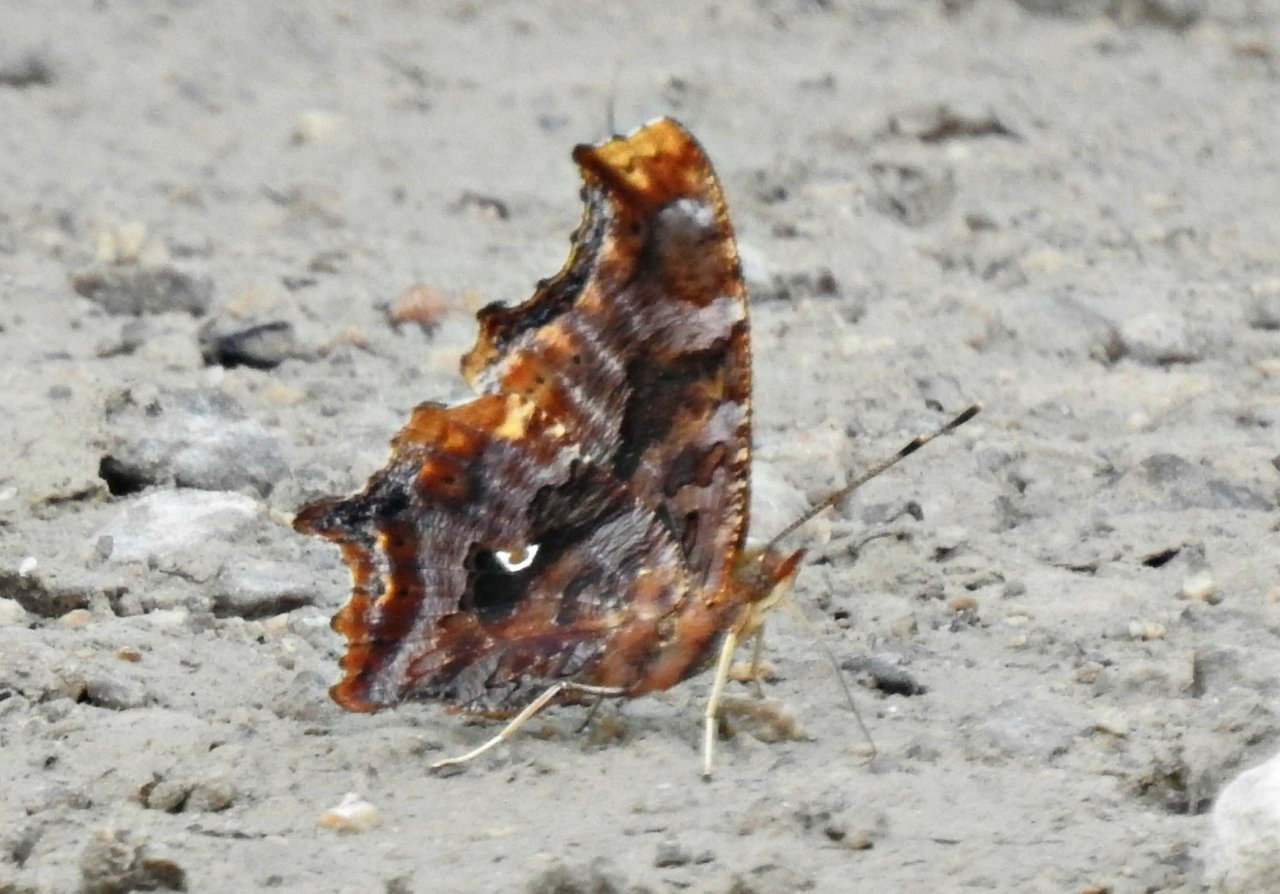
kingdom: Animalia
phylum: Arthropoda
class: Insecta
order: Lepidoptera
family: Nymphalidae
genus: Polygonia
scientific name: Polygonia comma
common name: Eastern Comma
